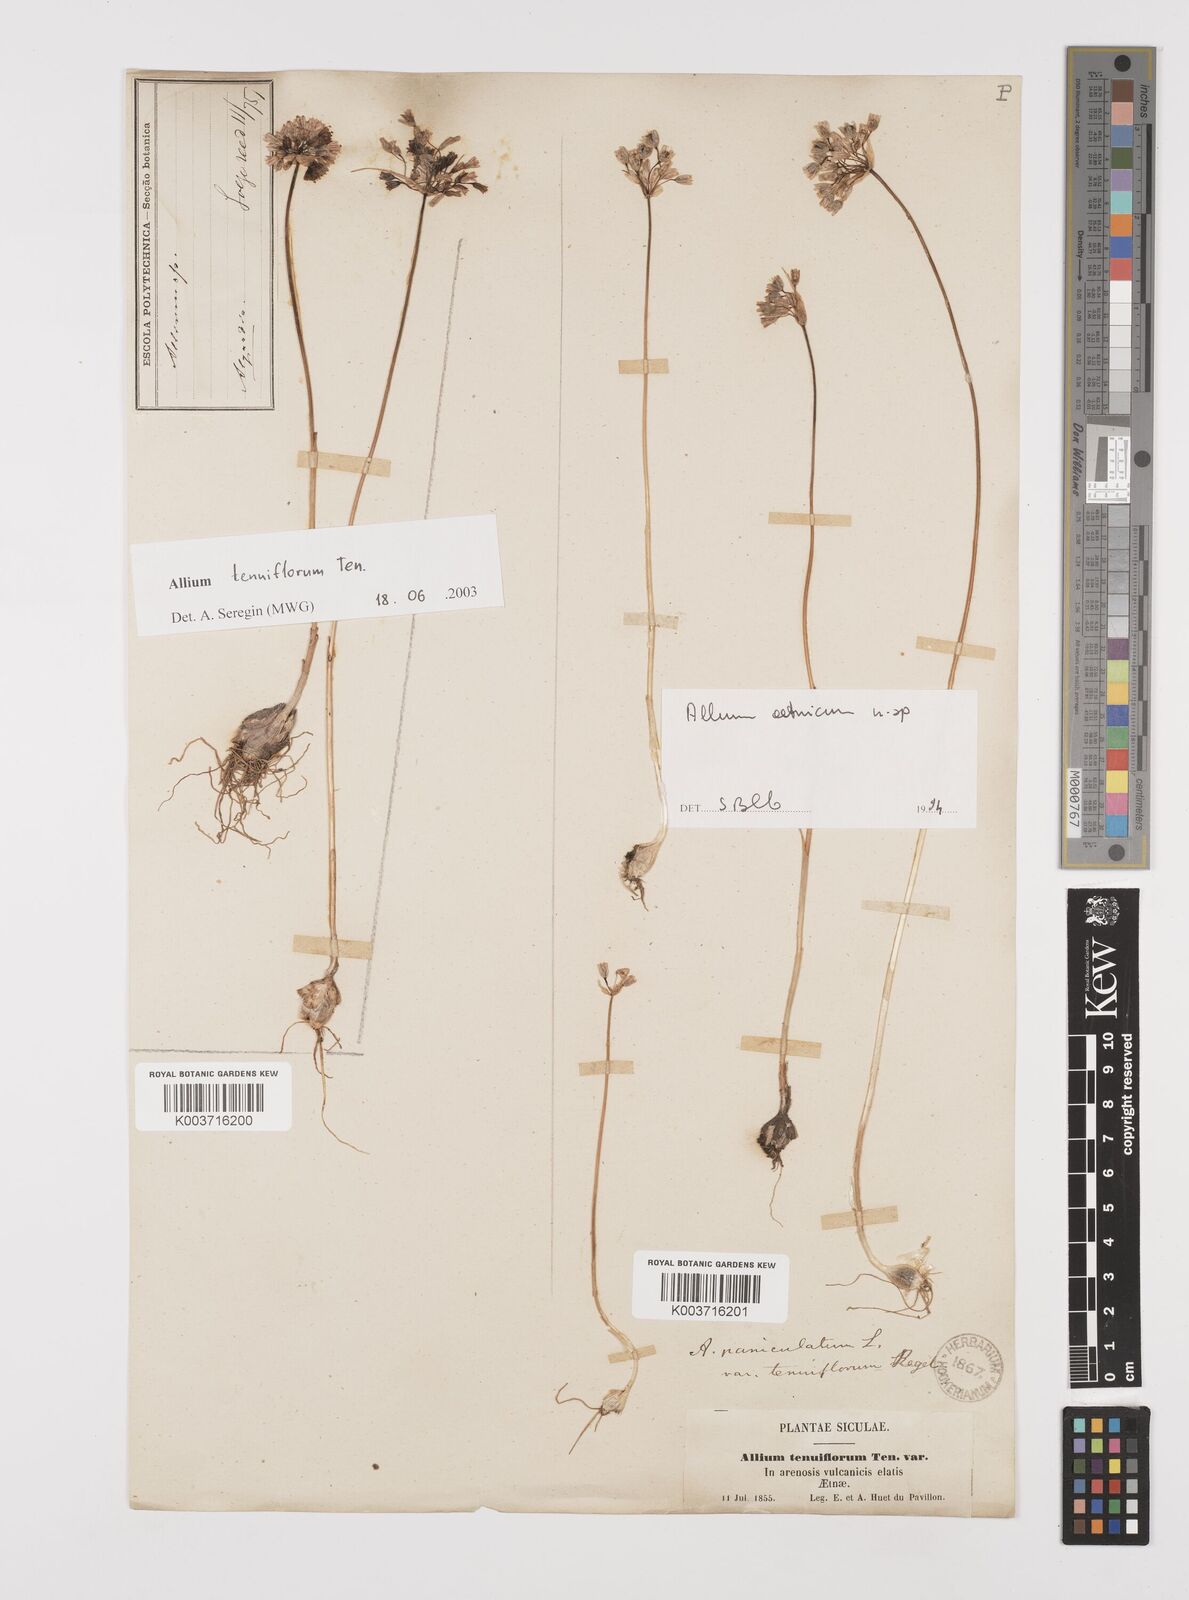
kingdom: Plantae
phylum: Tracheophyta
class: Liliopsida
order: Asparagales
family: Amaryllidaceae
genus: Allium
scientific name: Allium tenuiflorum
